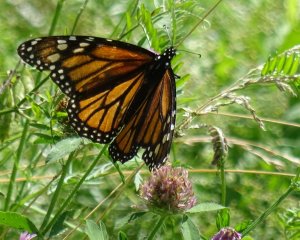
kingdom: Animalia
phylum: Arthropoda
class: Insecta
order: Lepidoptera
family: Nymphalidae
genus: Danaus
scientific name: Danaus plexippus
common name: Monarch
